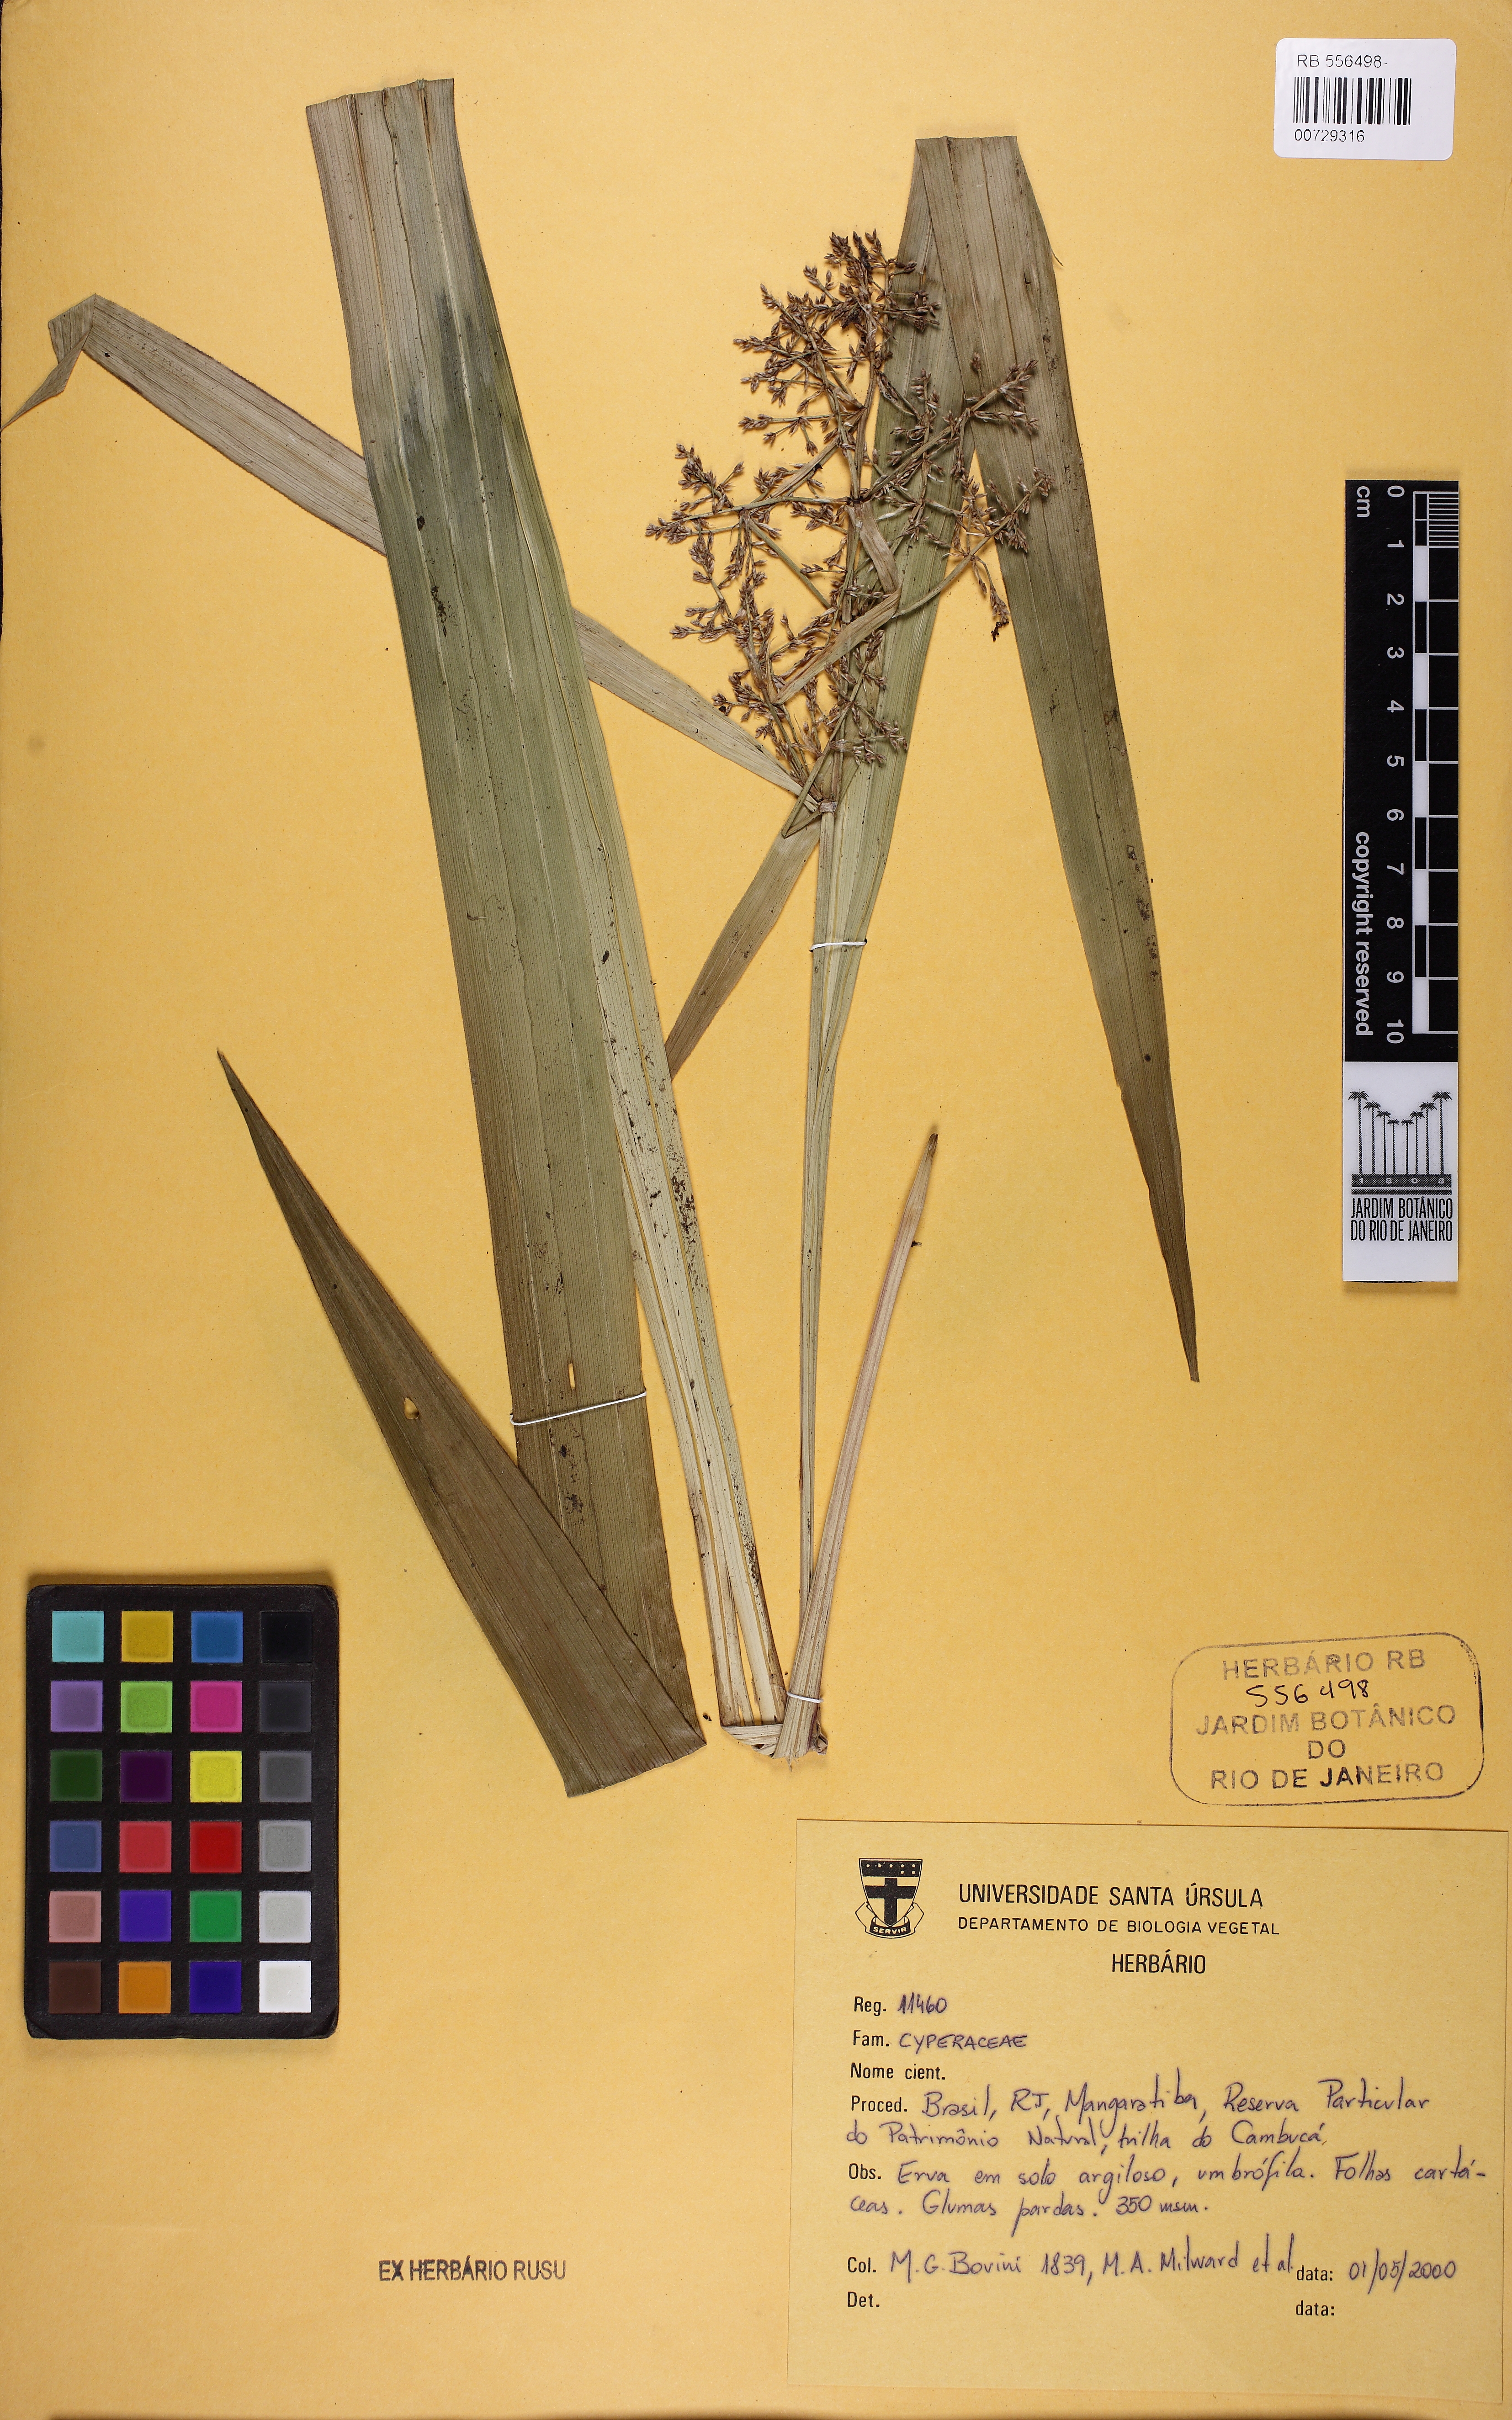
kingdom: Plantae
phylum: Tracheophyta
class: Liliopsida
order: Poales
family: Cyperaceae
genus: Scleria
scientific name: Scleria
